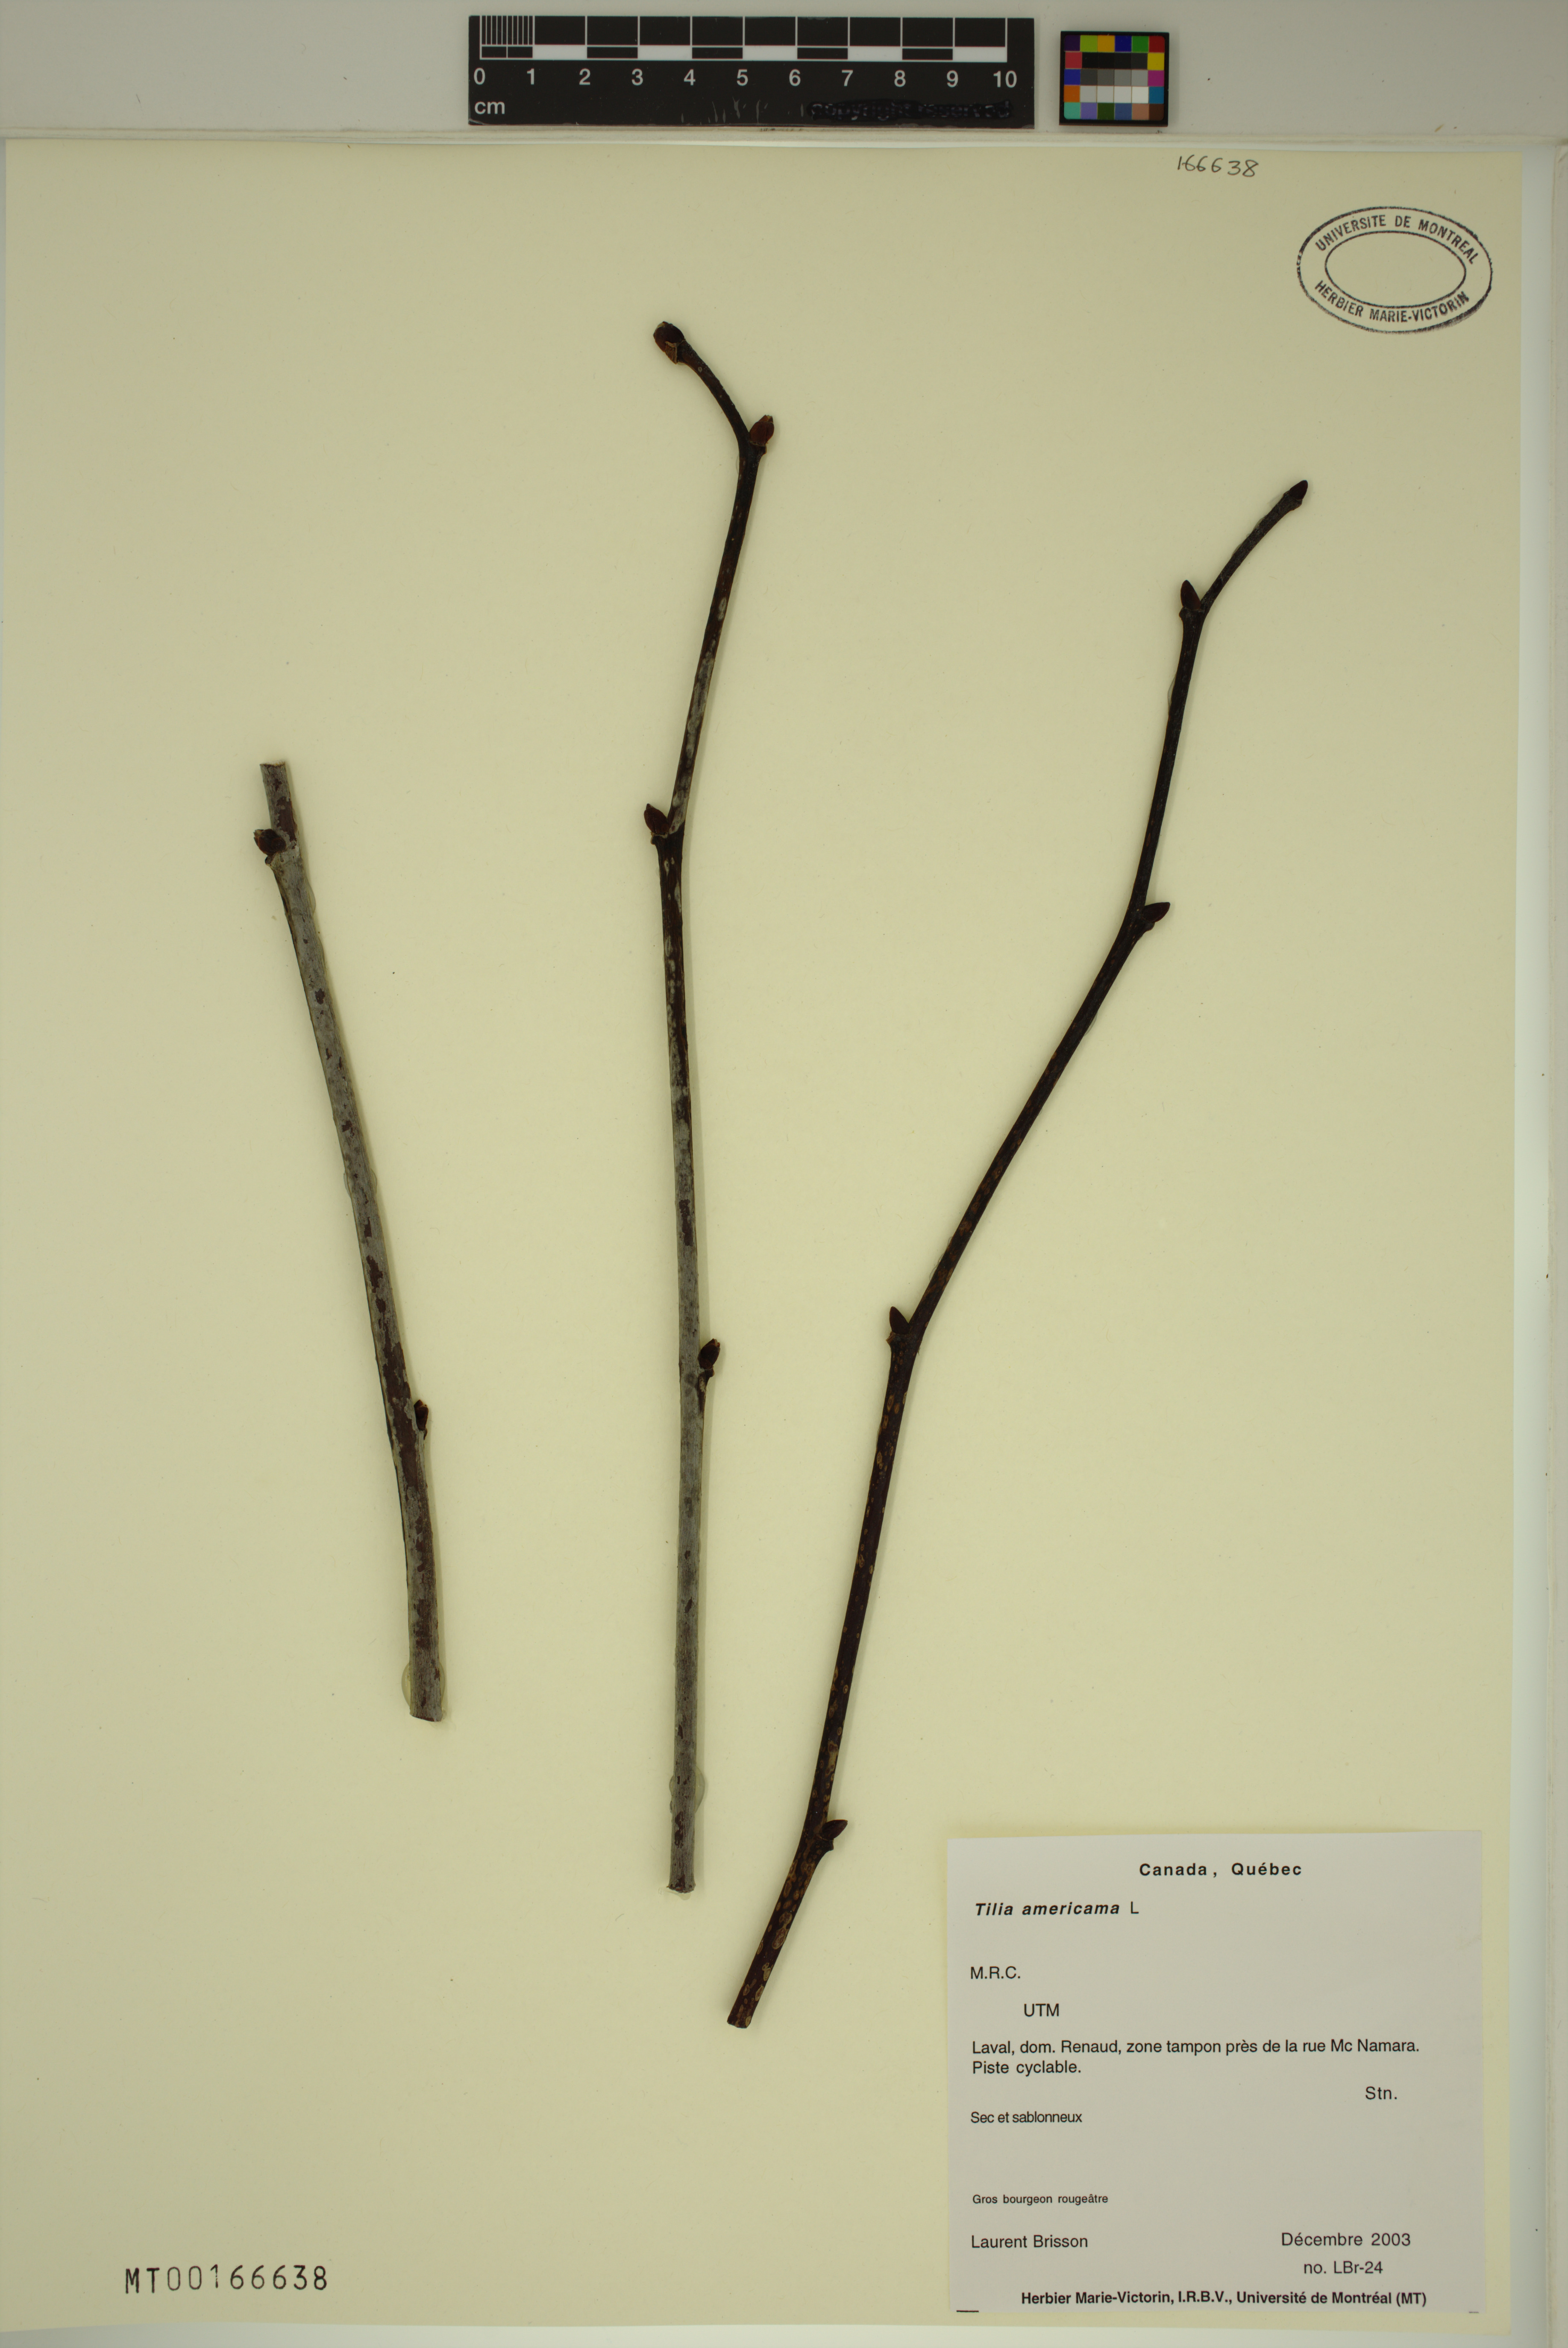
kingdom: Plantae
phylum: Tracheophyta
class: Magnoliopsida
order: Malvales
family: Malvaceae
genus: Tilia
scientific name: Tilia americana
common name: Basswood
